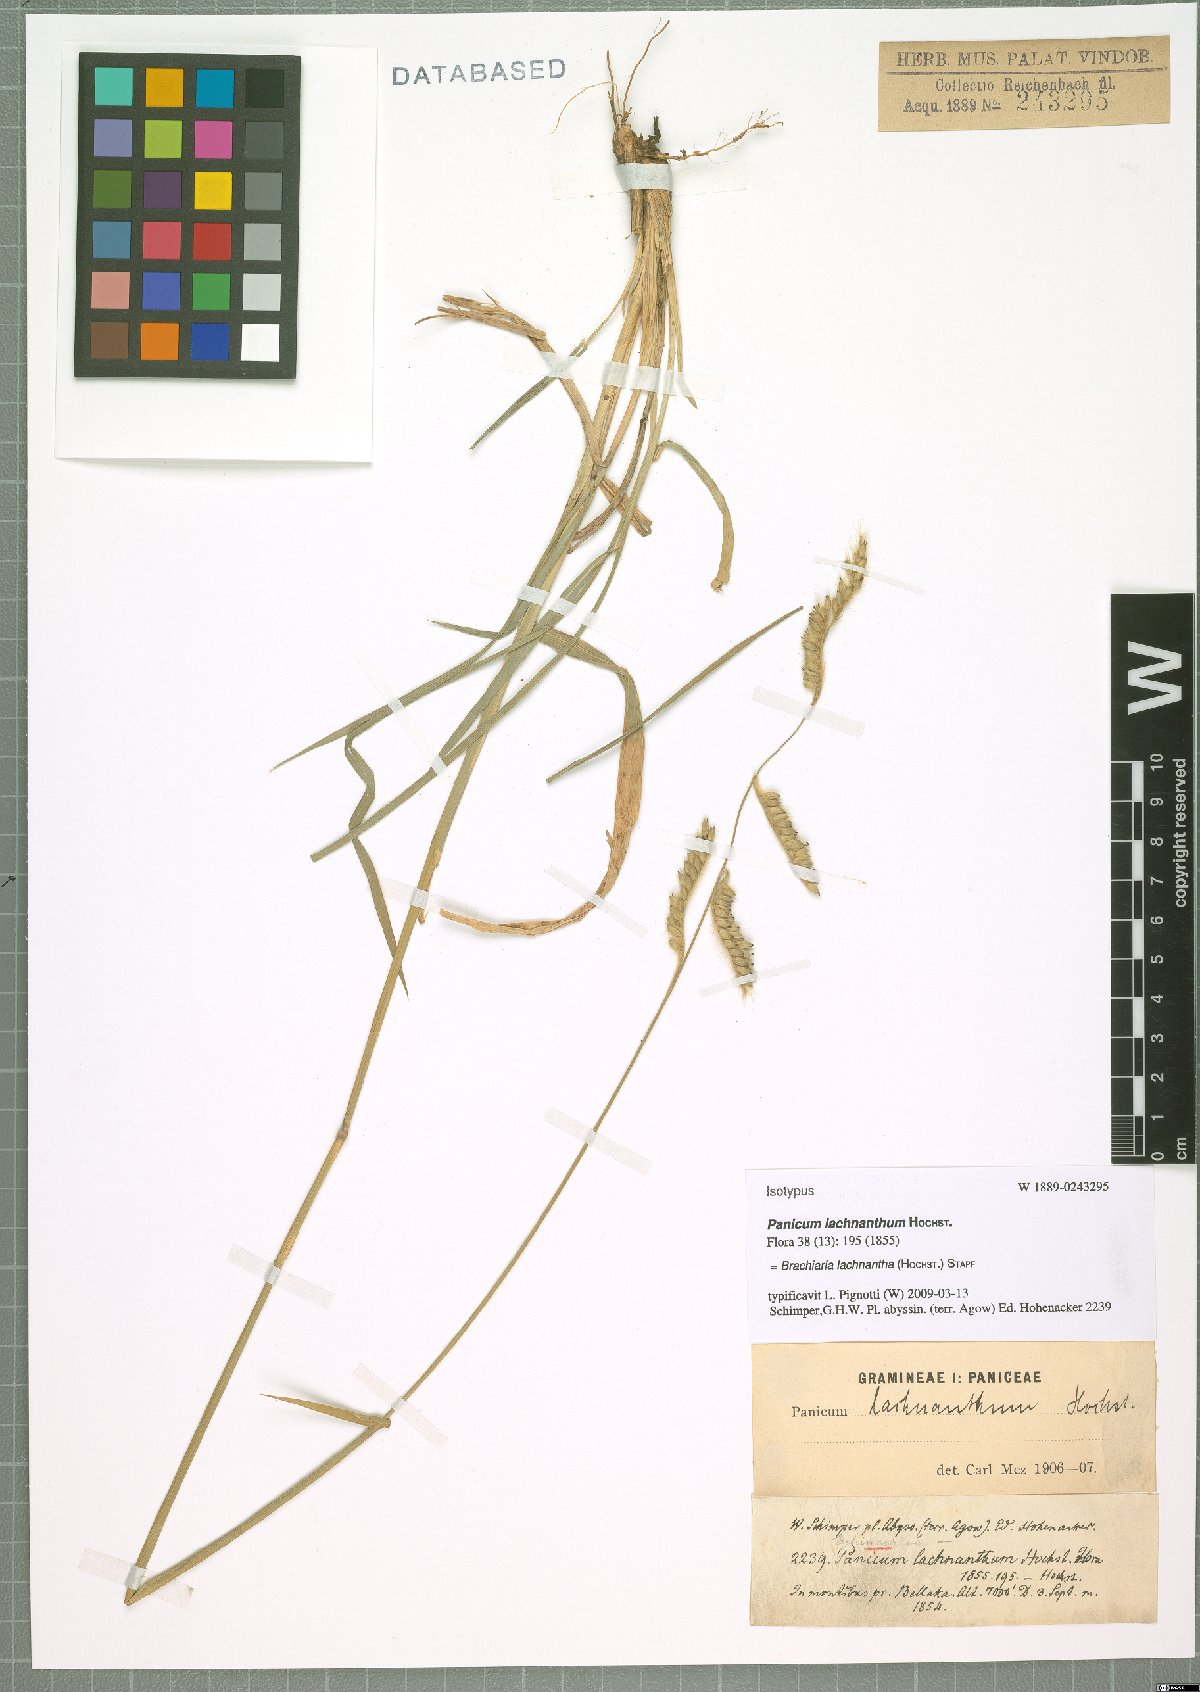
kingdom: Plantae
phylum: Tracheophyta
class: Liliopsida
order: Poales
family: Poaceae
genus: Urochloa
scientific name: Urochloa lachnantha
